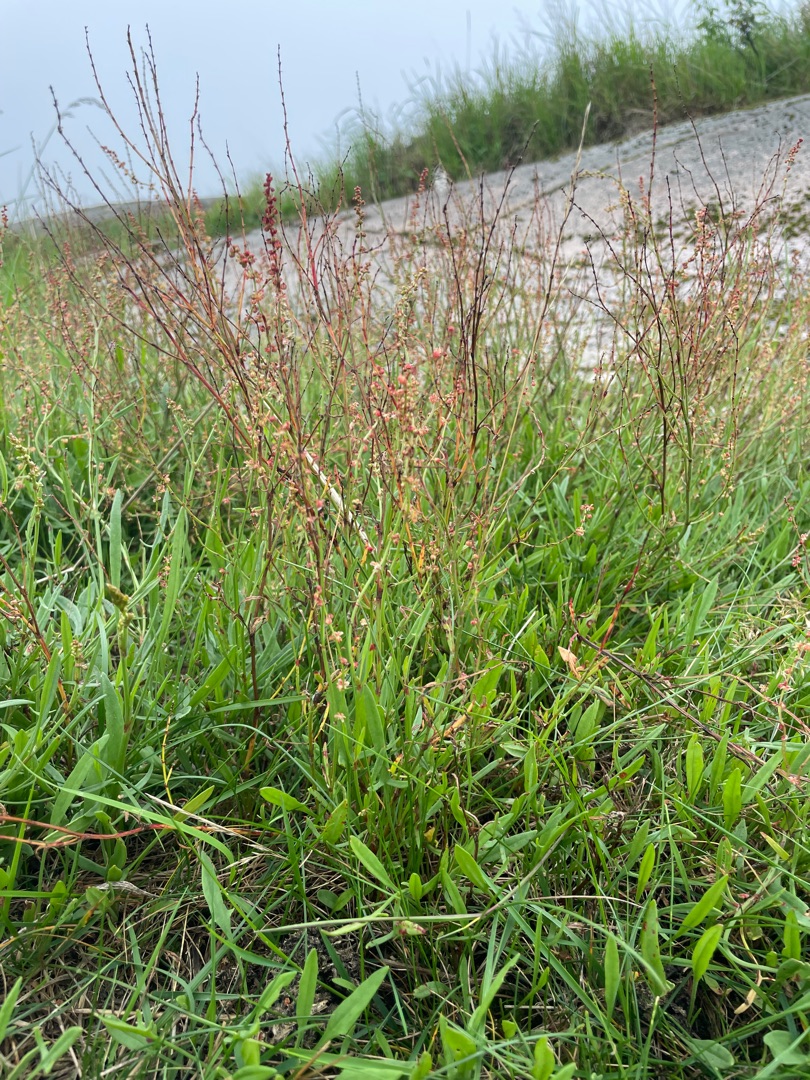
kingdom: Plantae
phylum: Tracheophyta
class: Magnoliopsida
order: Caryophyllales
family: Polygonaceae
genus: Rumex
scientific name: Rumex acetosella
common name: Rødknæ
